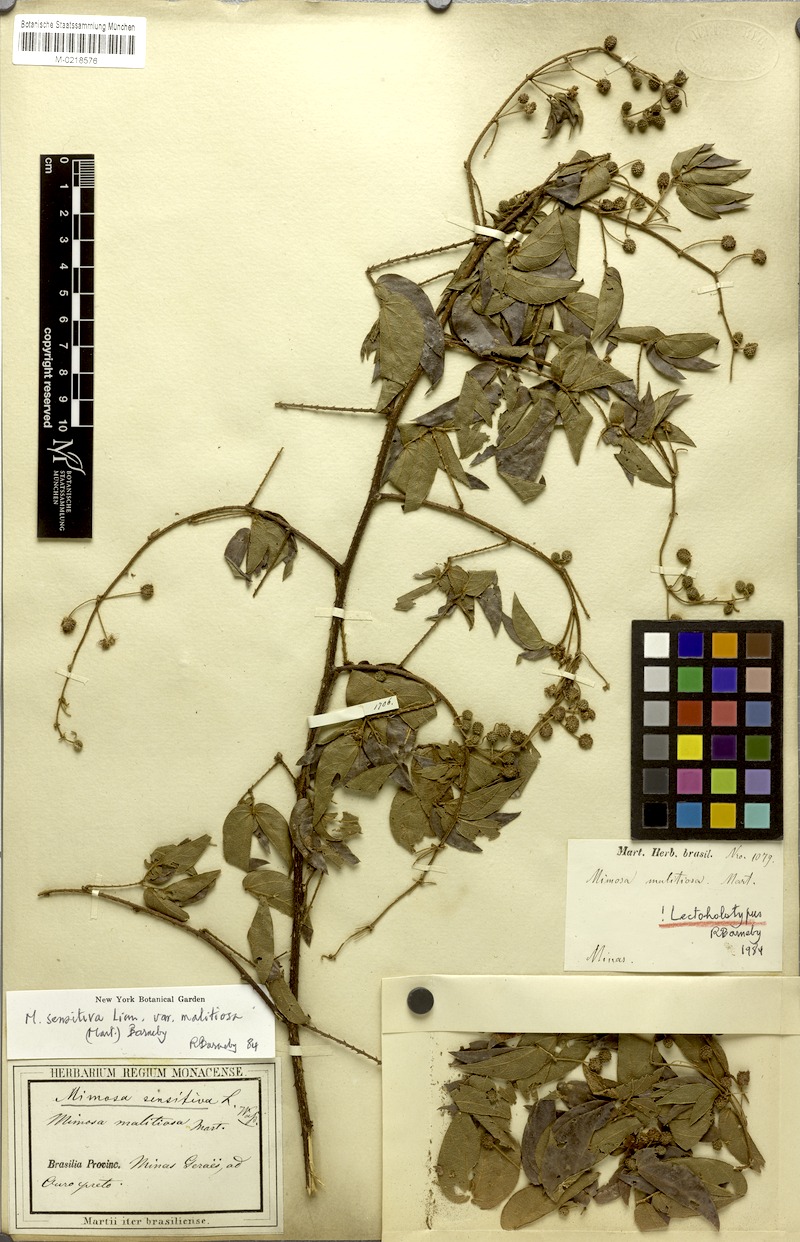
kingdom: Plantae
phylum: Tracheophyta
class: Magnoliopsida
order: Fabales
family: Fabaceae
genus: Mimosa
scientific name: Mimosa sensitiva
